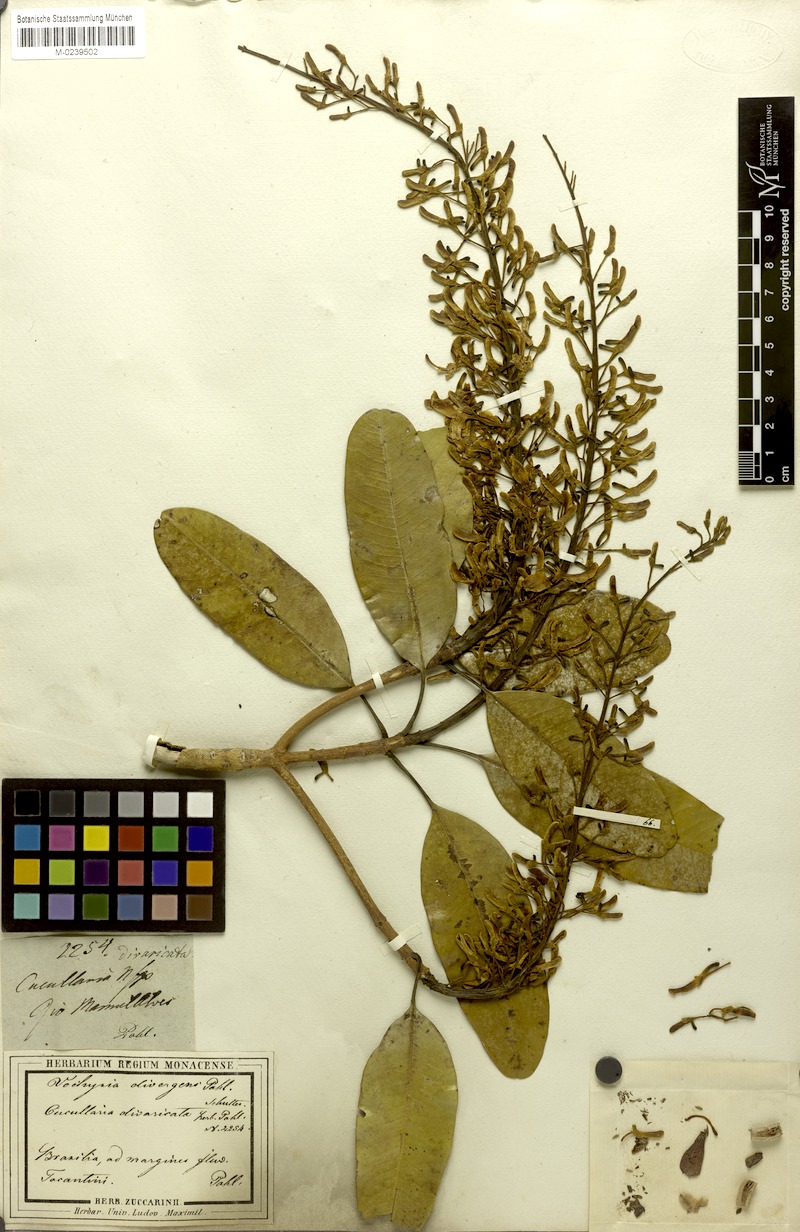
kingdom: Plantae
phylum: Tracheophyta
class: Magnoliopsida
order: Myrtales
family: Vochysiaceae
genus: Vochysia
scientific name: Vochysia divergens
